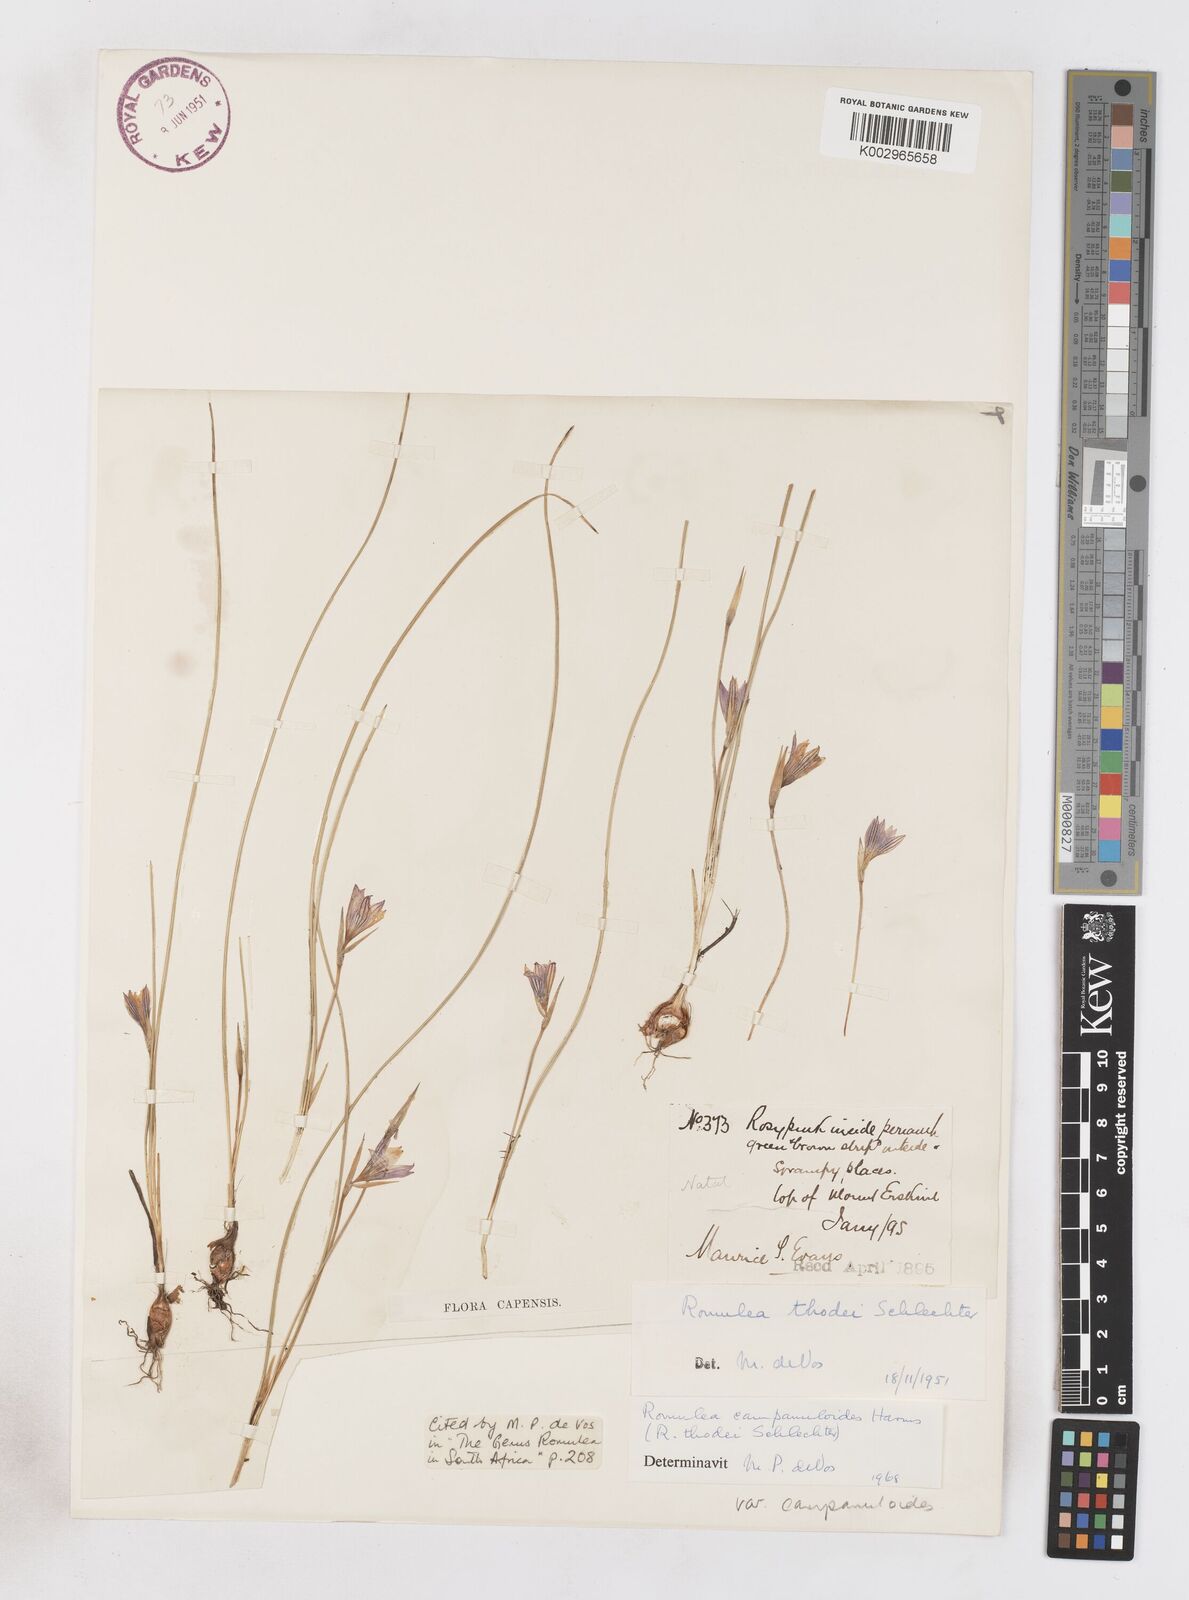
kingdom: Plantae
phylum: Tracheophyta
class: Liliopsida
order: Asparagales
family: Iridaceae
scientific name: Iridaceae
